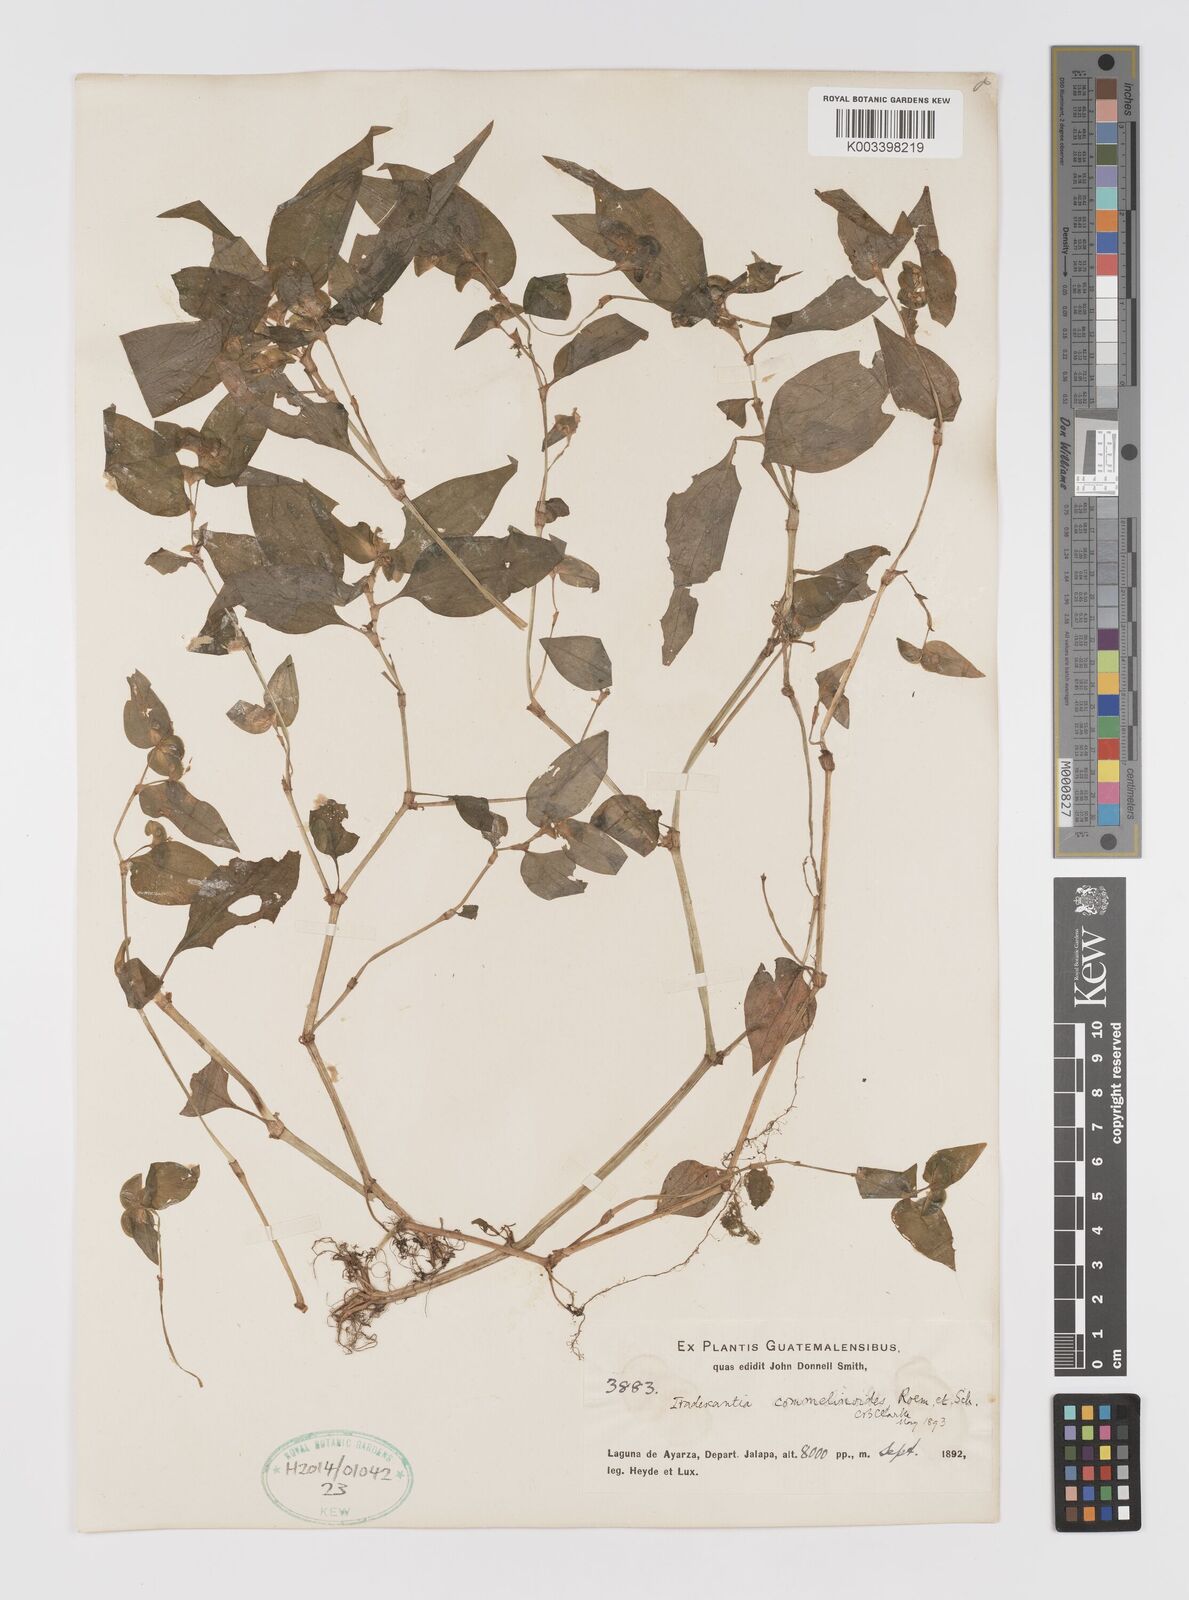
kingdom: Plantae
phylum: Tracheophyta
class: Liliopsida
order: Commelinales
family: Commelinaceae
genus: Tradescantia
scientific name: Tradescantia commelinoides
